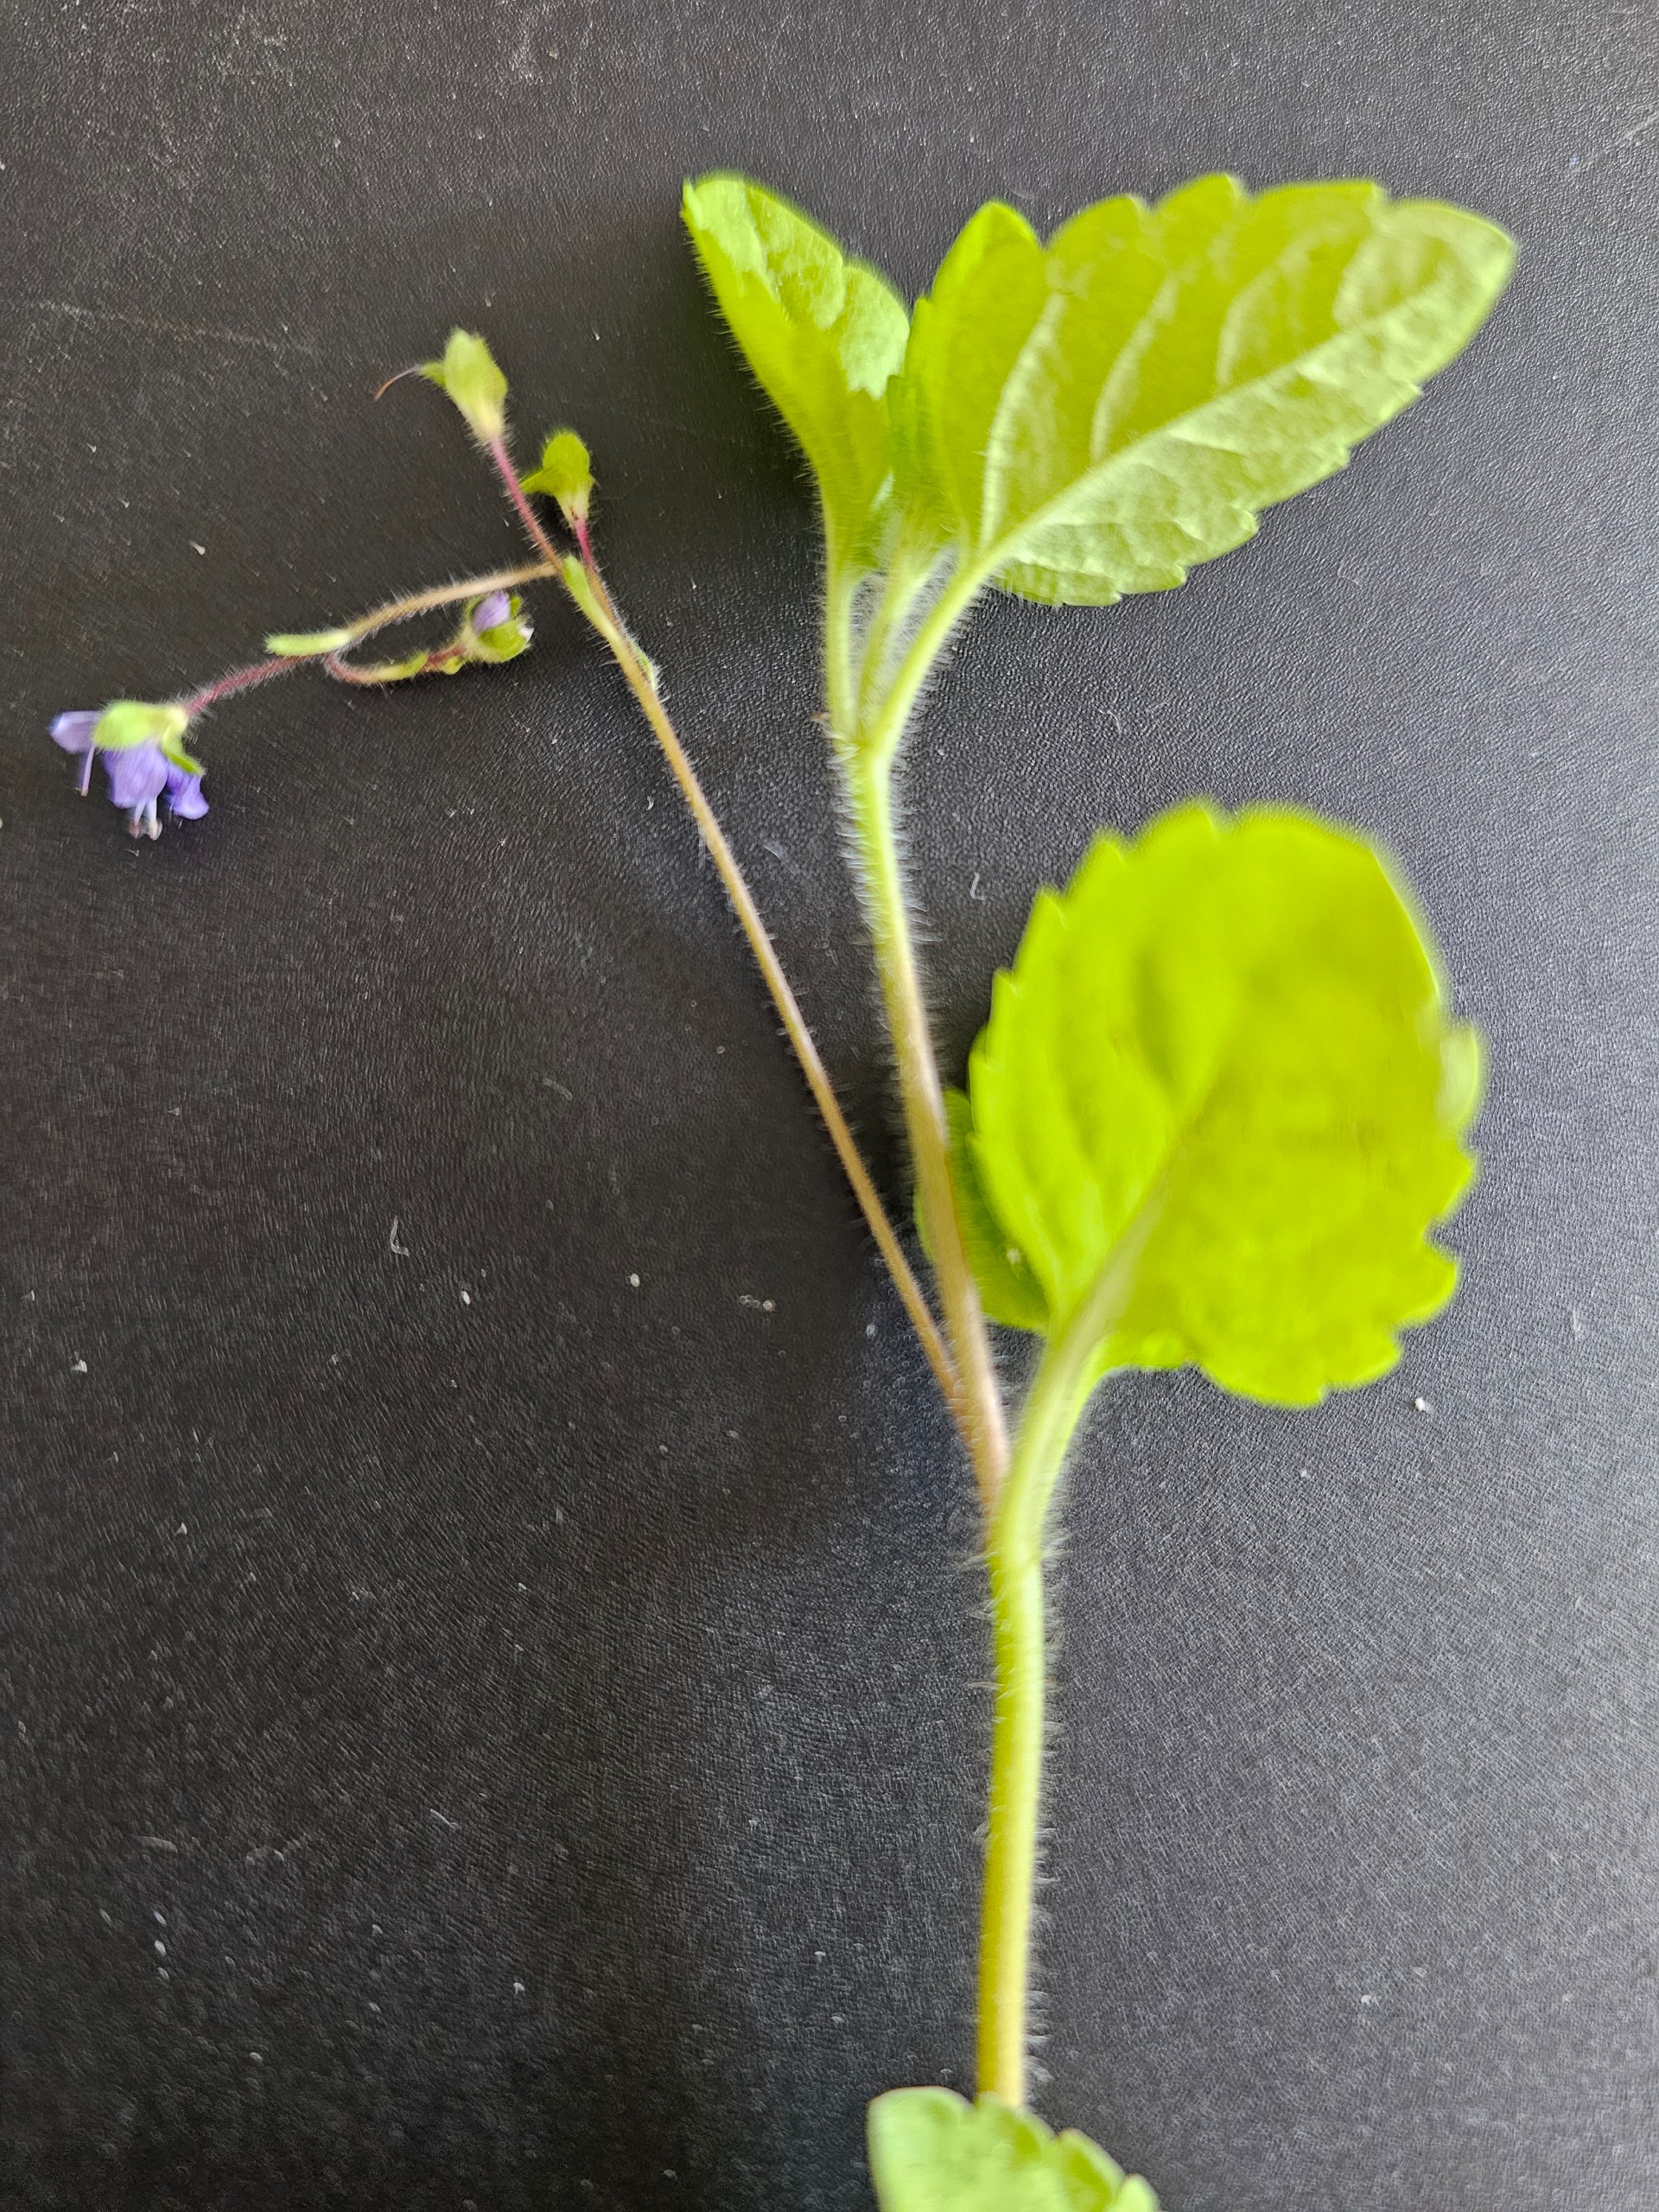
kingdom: Plantae
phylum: Tracheophyta
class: Magnoliopsida
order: Lamiales
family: Plantaginaceae
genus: Veronica
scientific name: Veronica montana
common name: Bjerg-ærenpris
